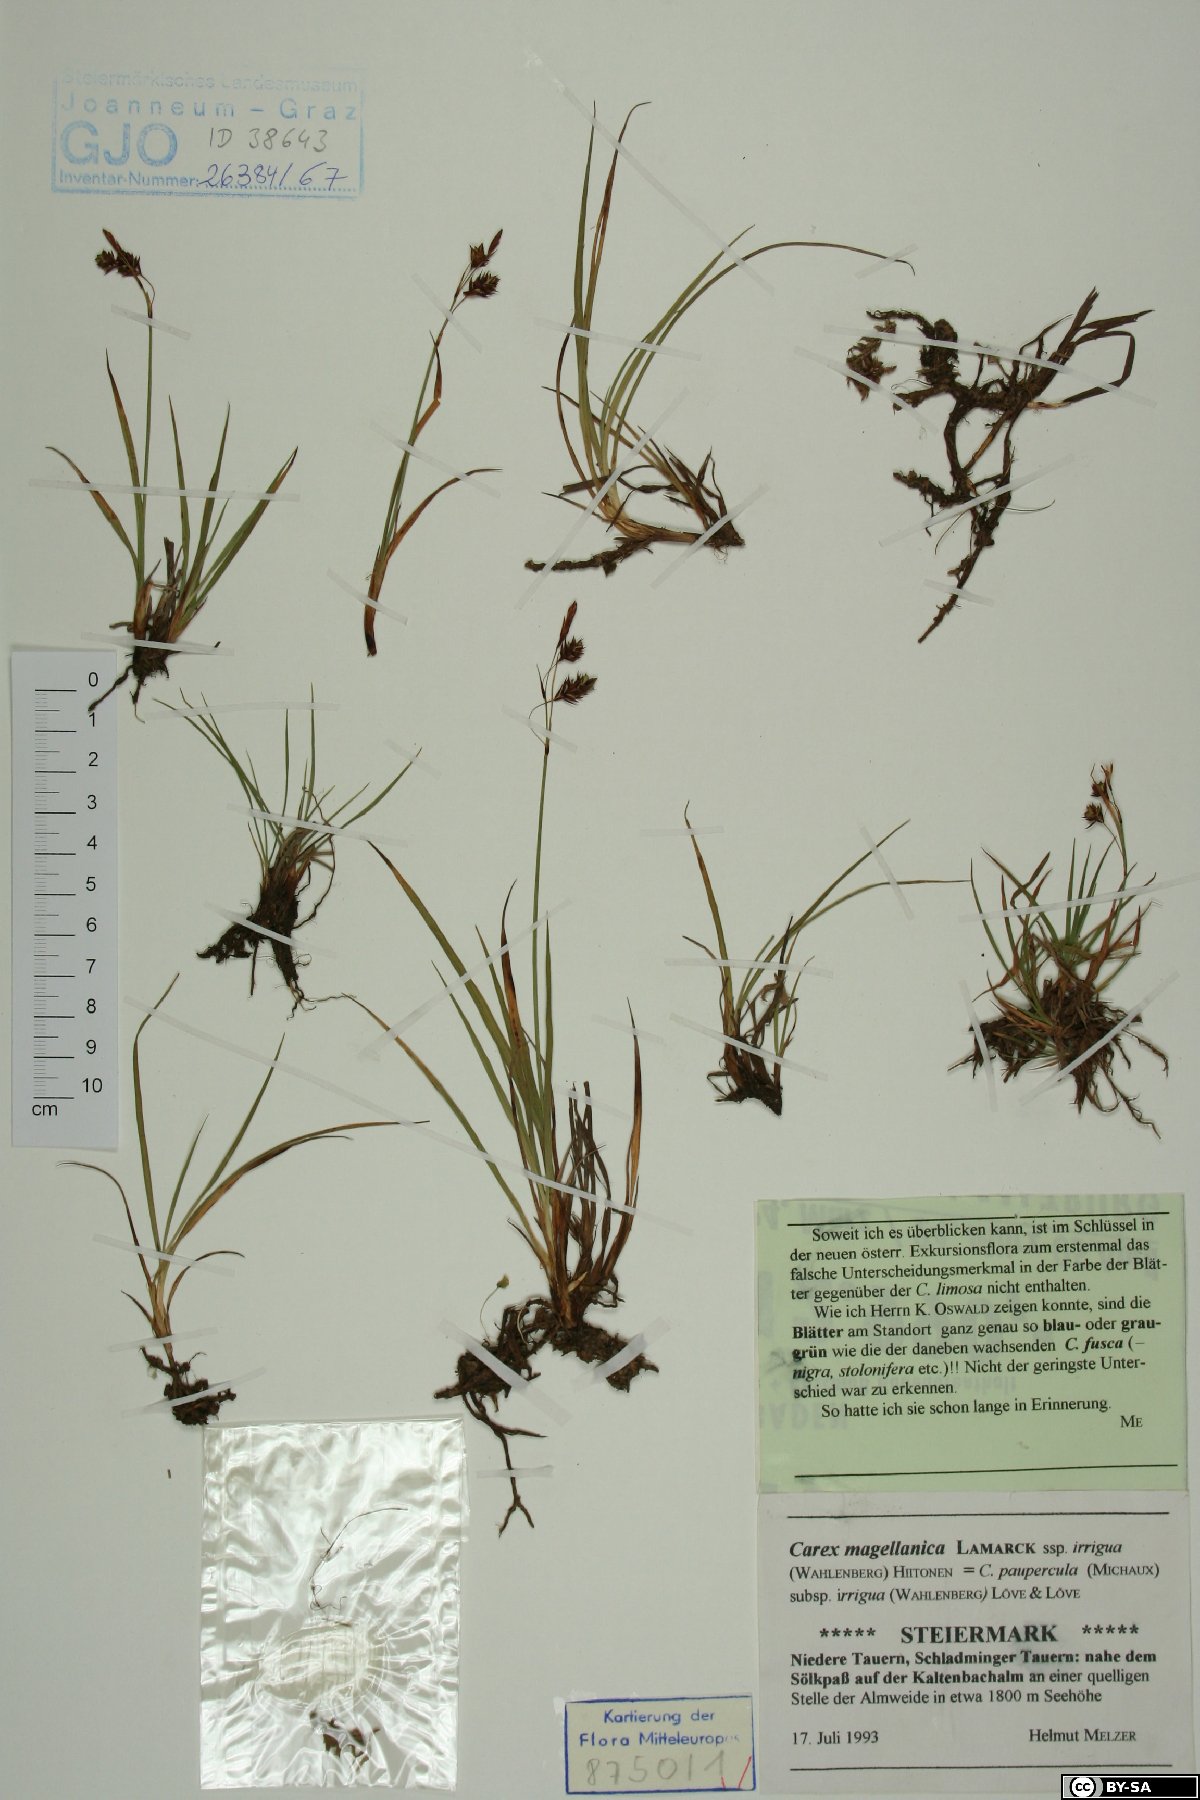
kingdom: Plantae
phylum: Tracheophyta
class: Liliopsida
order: Poales
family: Cyperaceae
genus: Carex
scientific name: Carex magellanica
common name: Bog sedge
